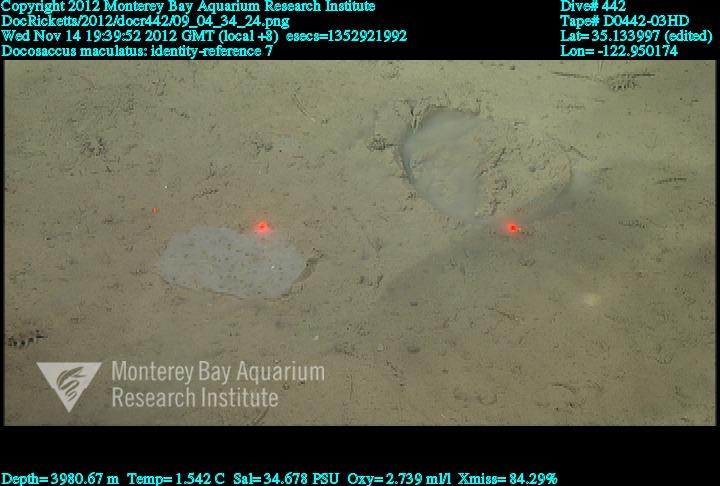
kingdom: Animalia
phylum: Porifera
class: Hexactinellida
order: Lyssacinosida
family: Euplectellidae
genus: Docosaccus
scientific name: Docosaccus maculatus
